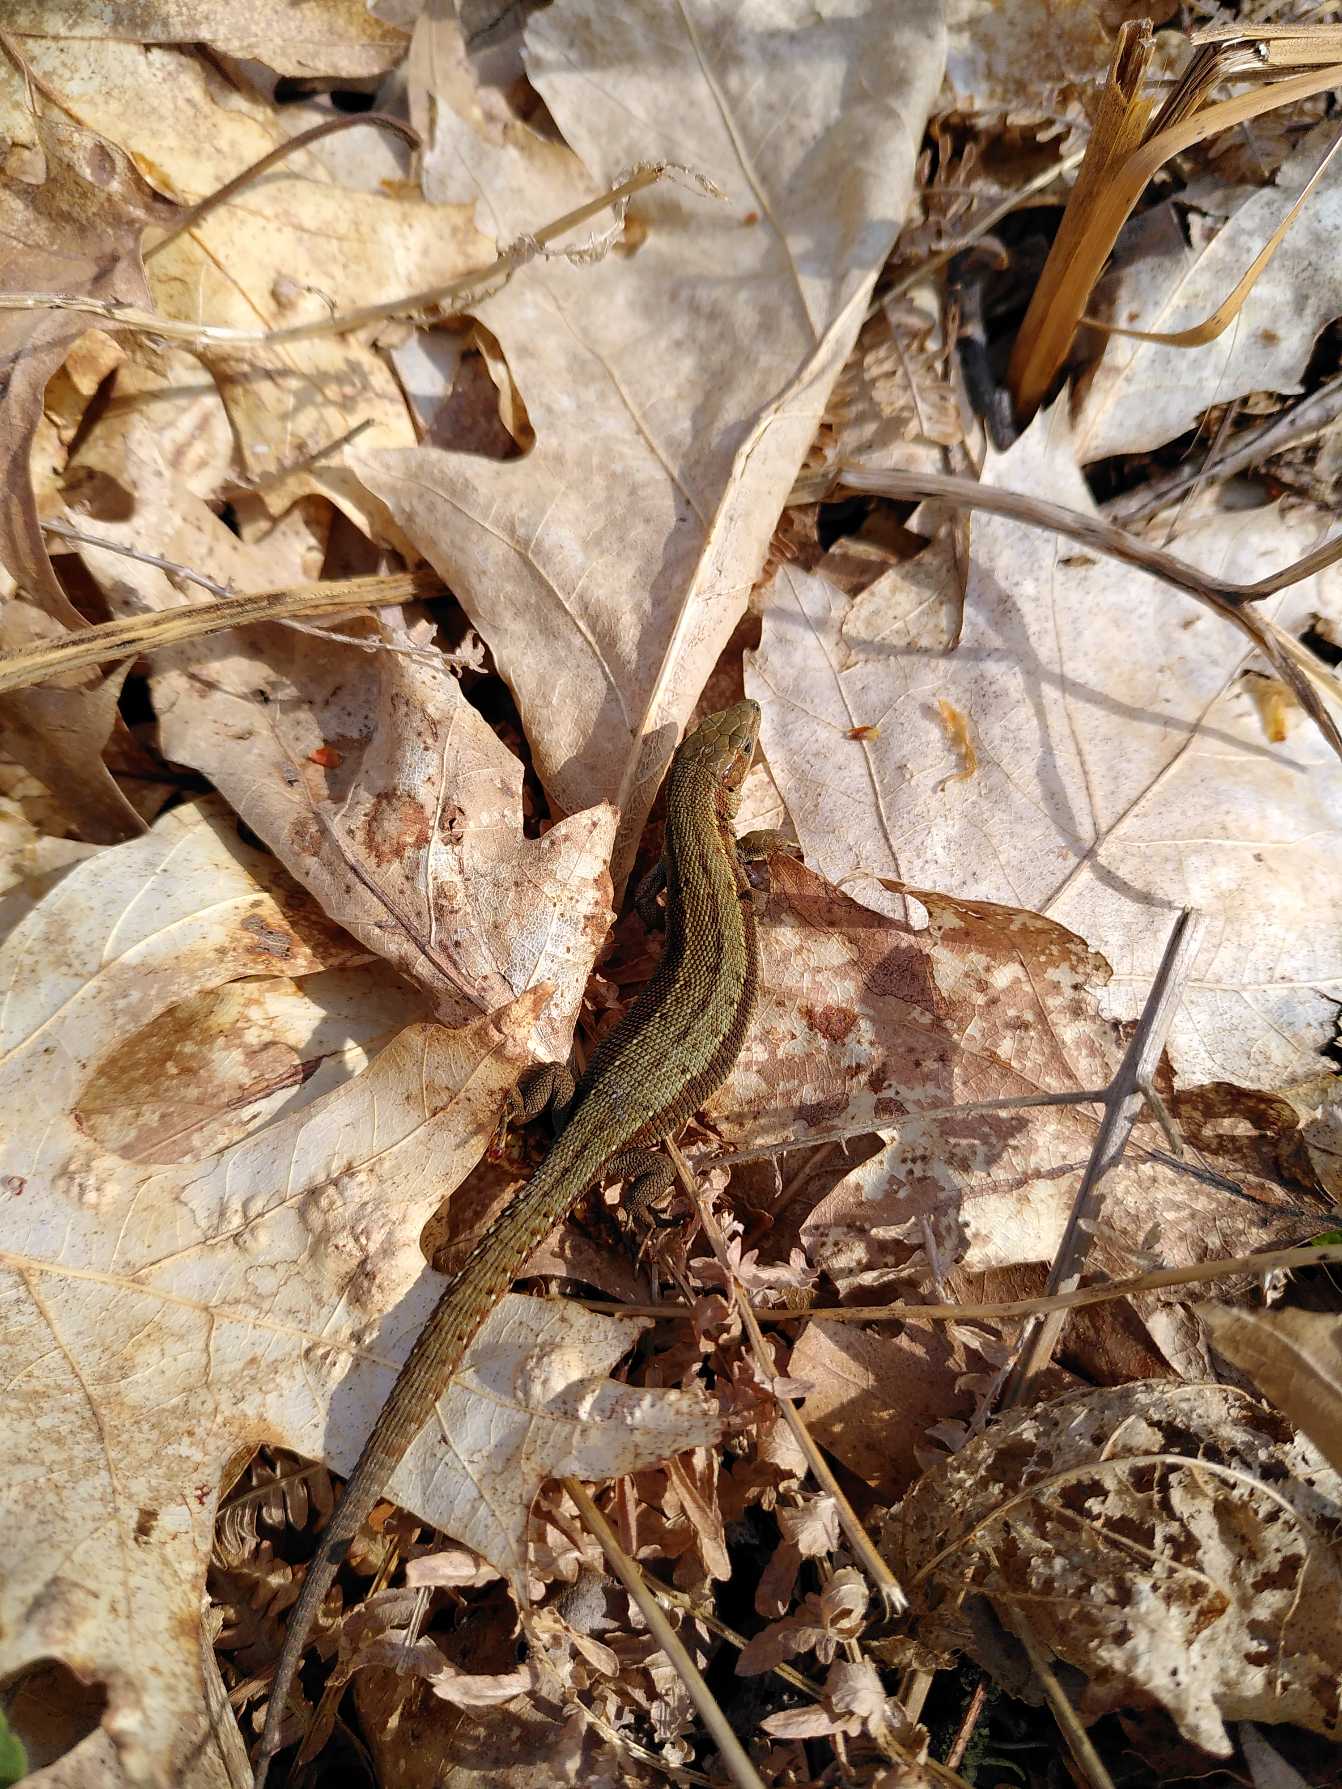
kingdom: Animalia
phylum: Chordata
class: Squamata
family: Lacertidae
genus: Zootoca
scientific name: Zootoca vivipara
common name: Skovfirben
